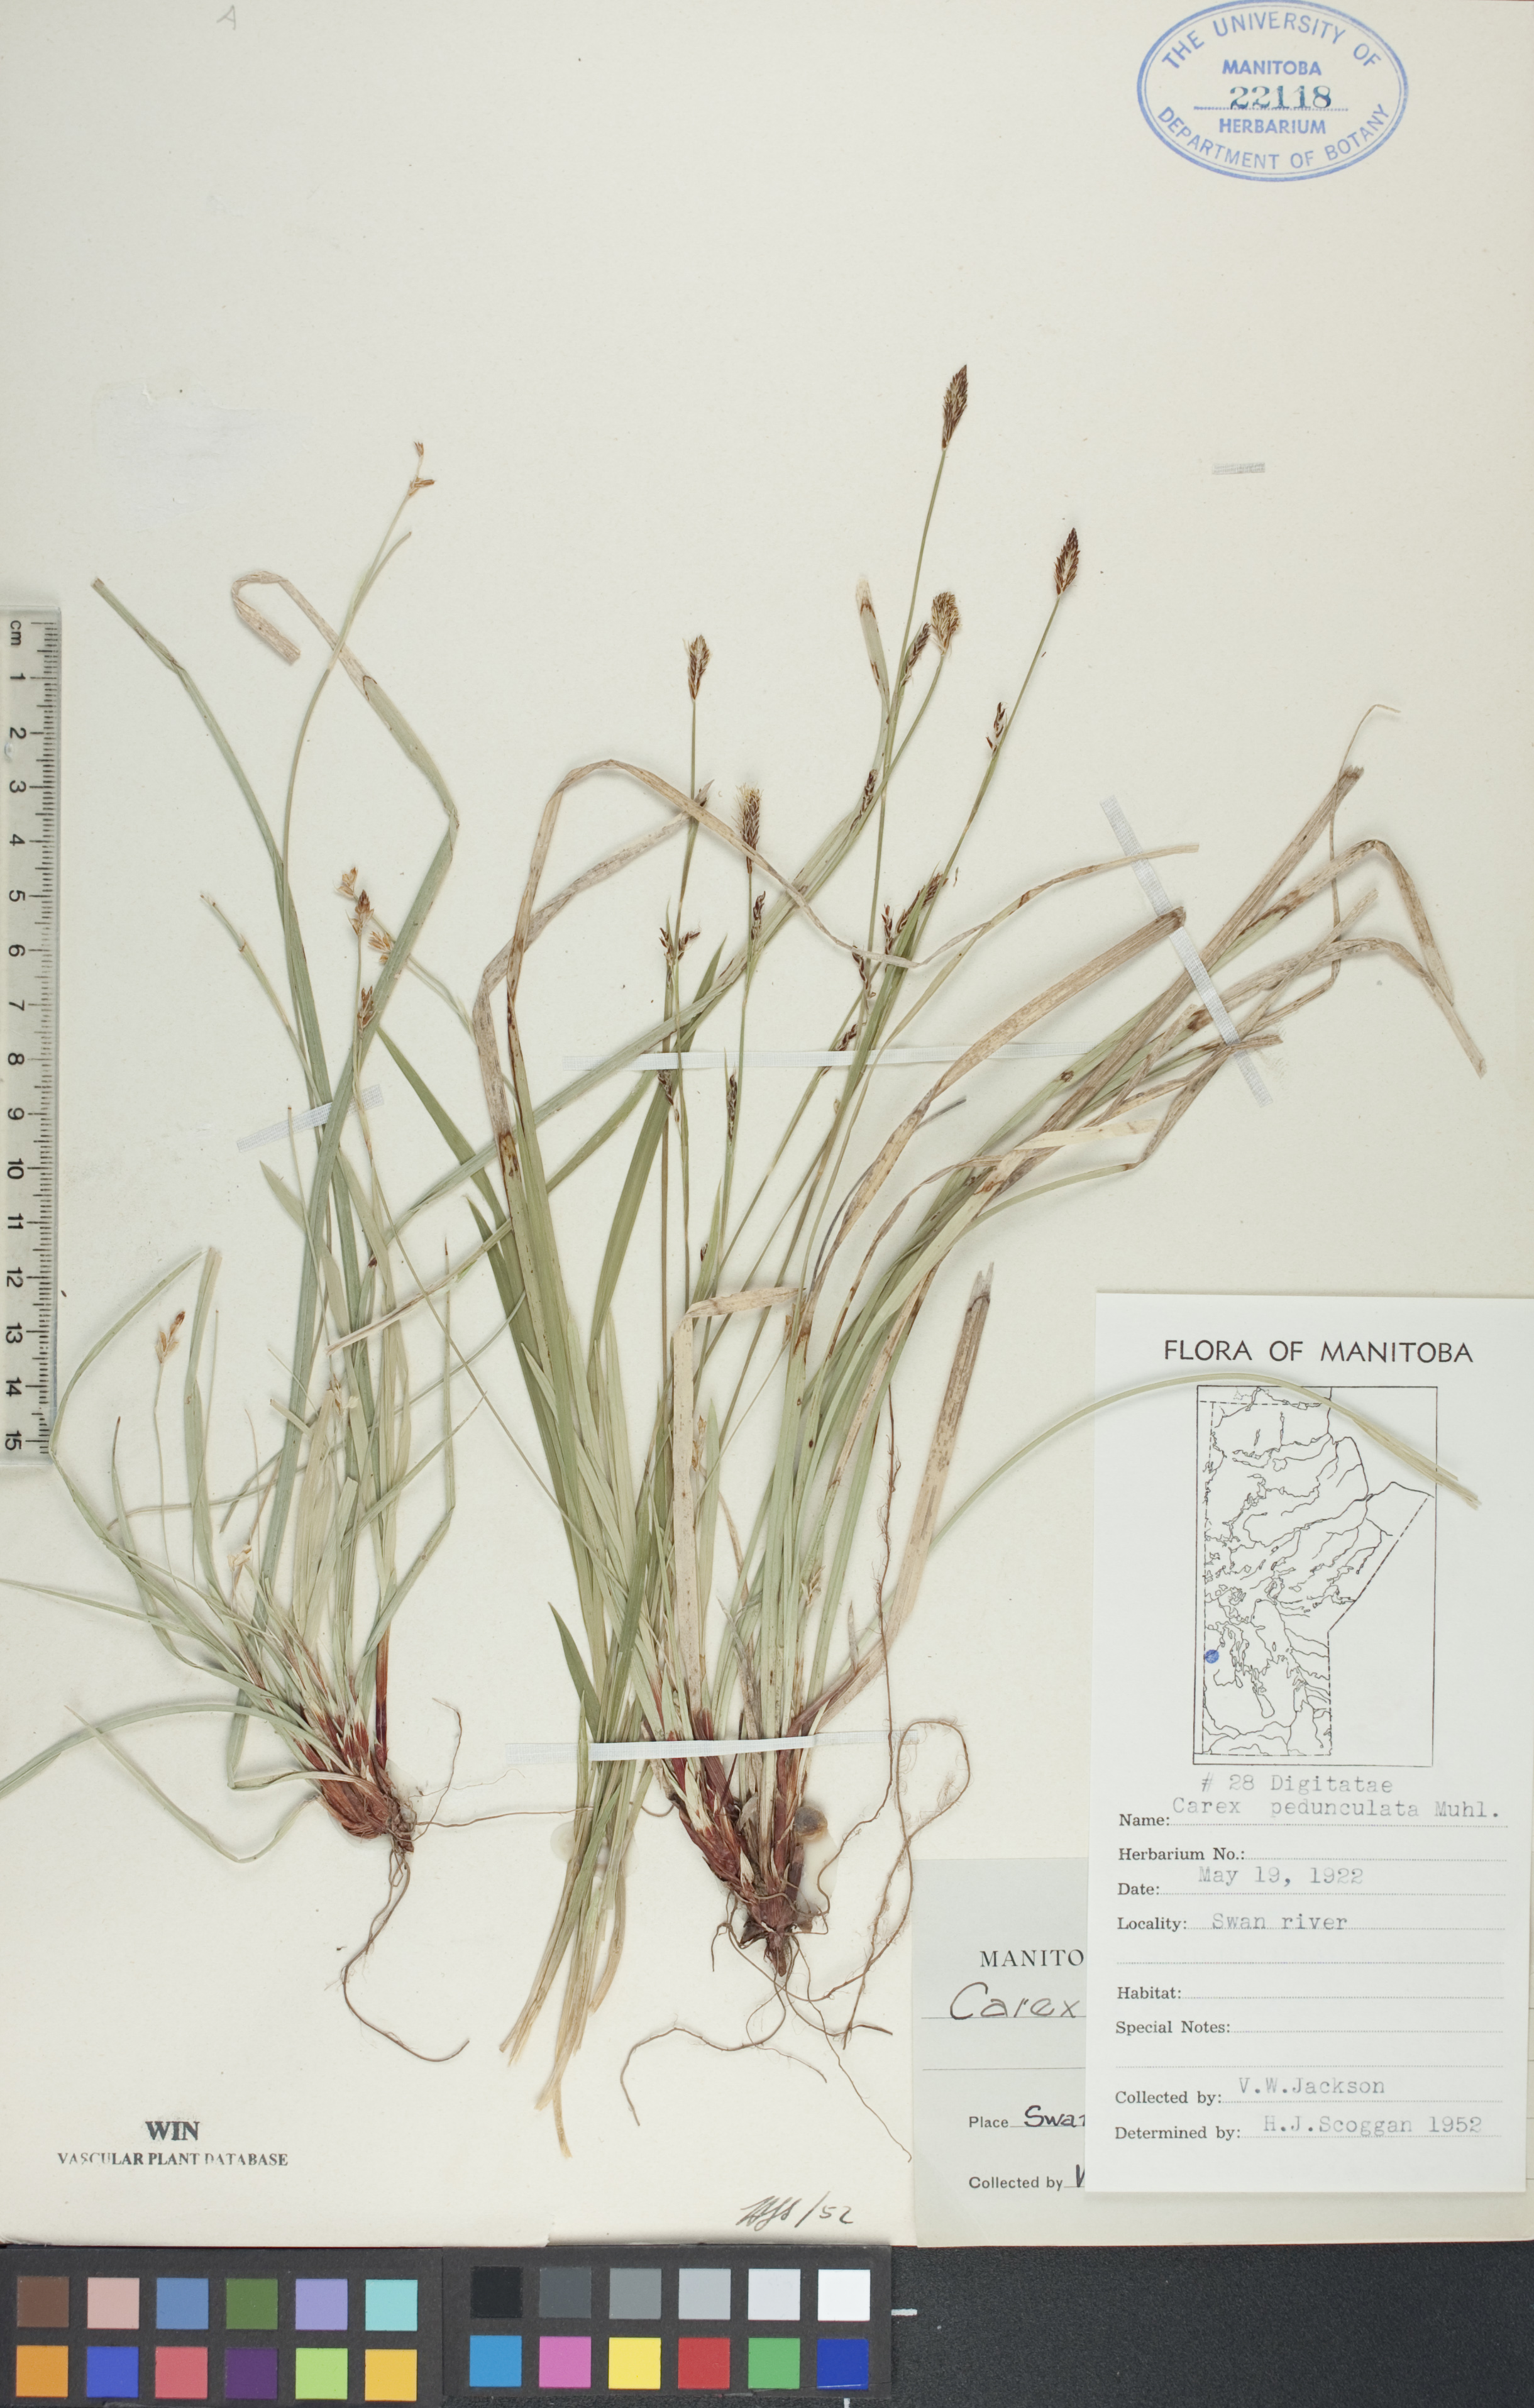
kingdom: Plantae
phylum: Tracheophyta
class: Liliopsida
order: Poales
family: Cyperaceae
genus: Carex
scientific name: Carex pedunculata
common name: Pedunculate sedge
